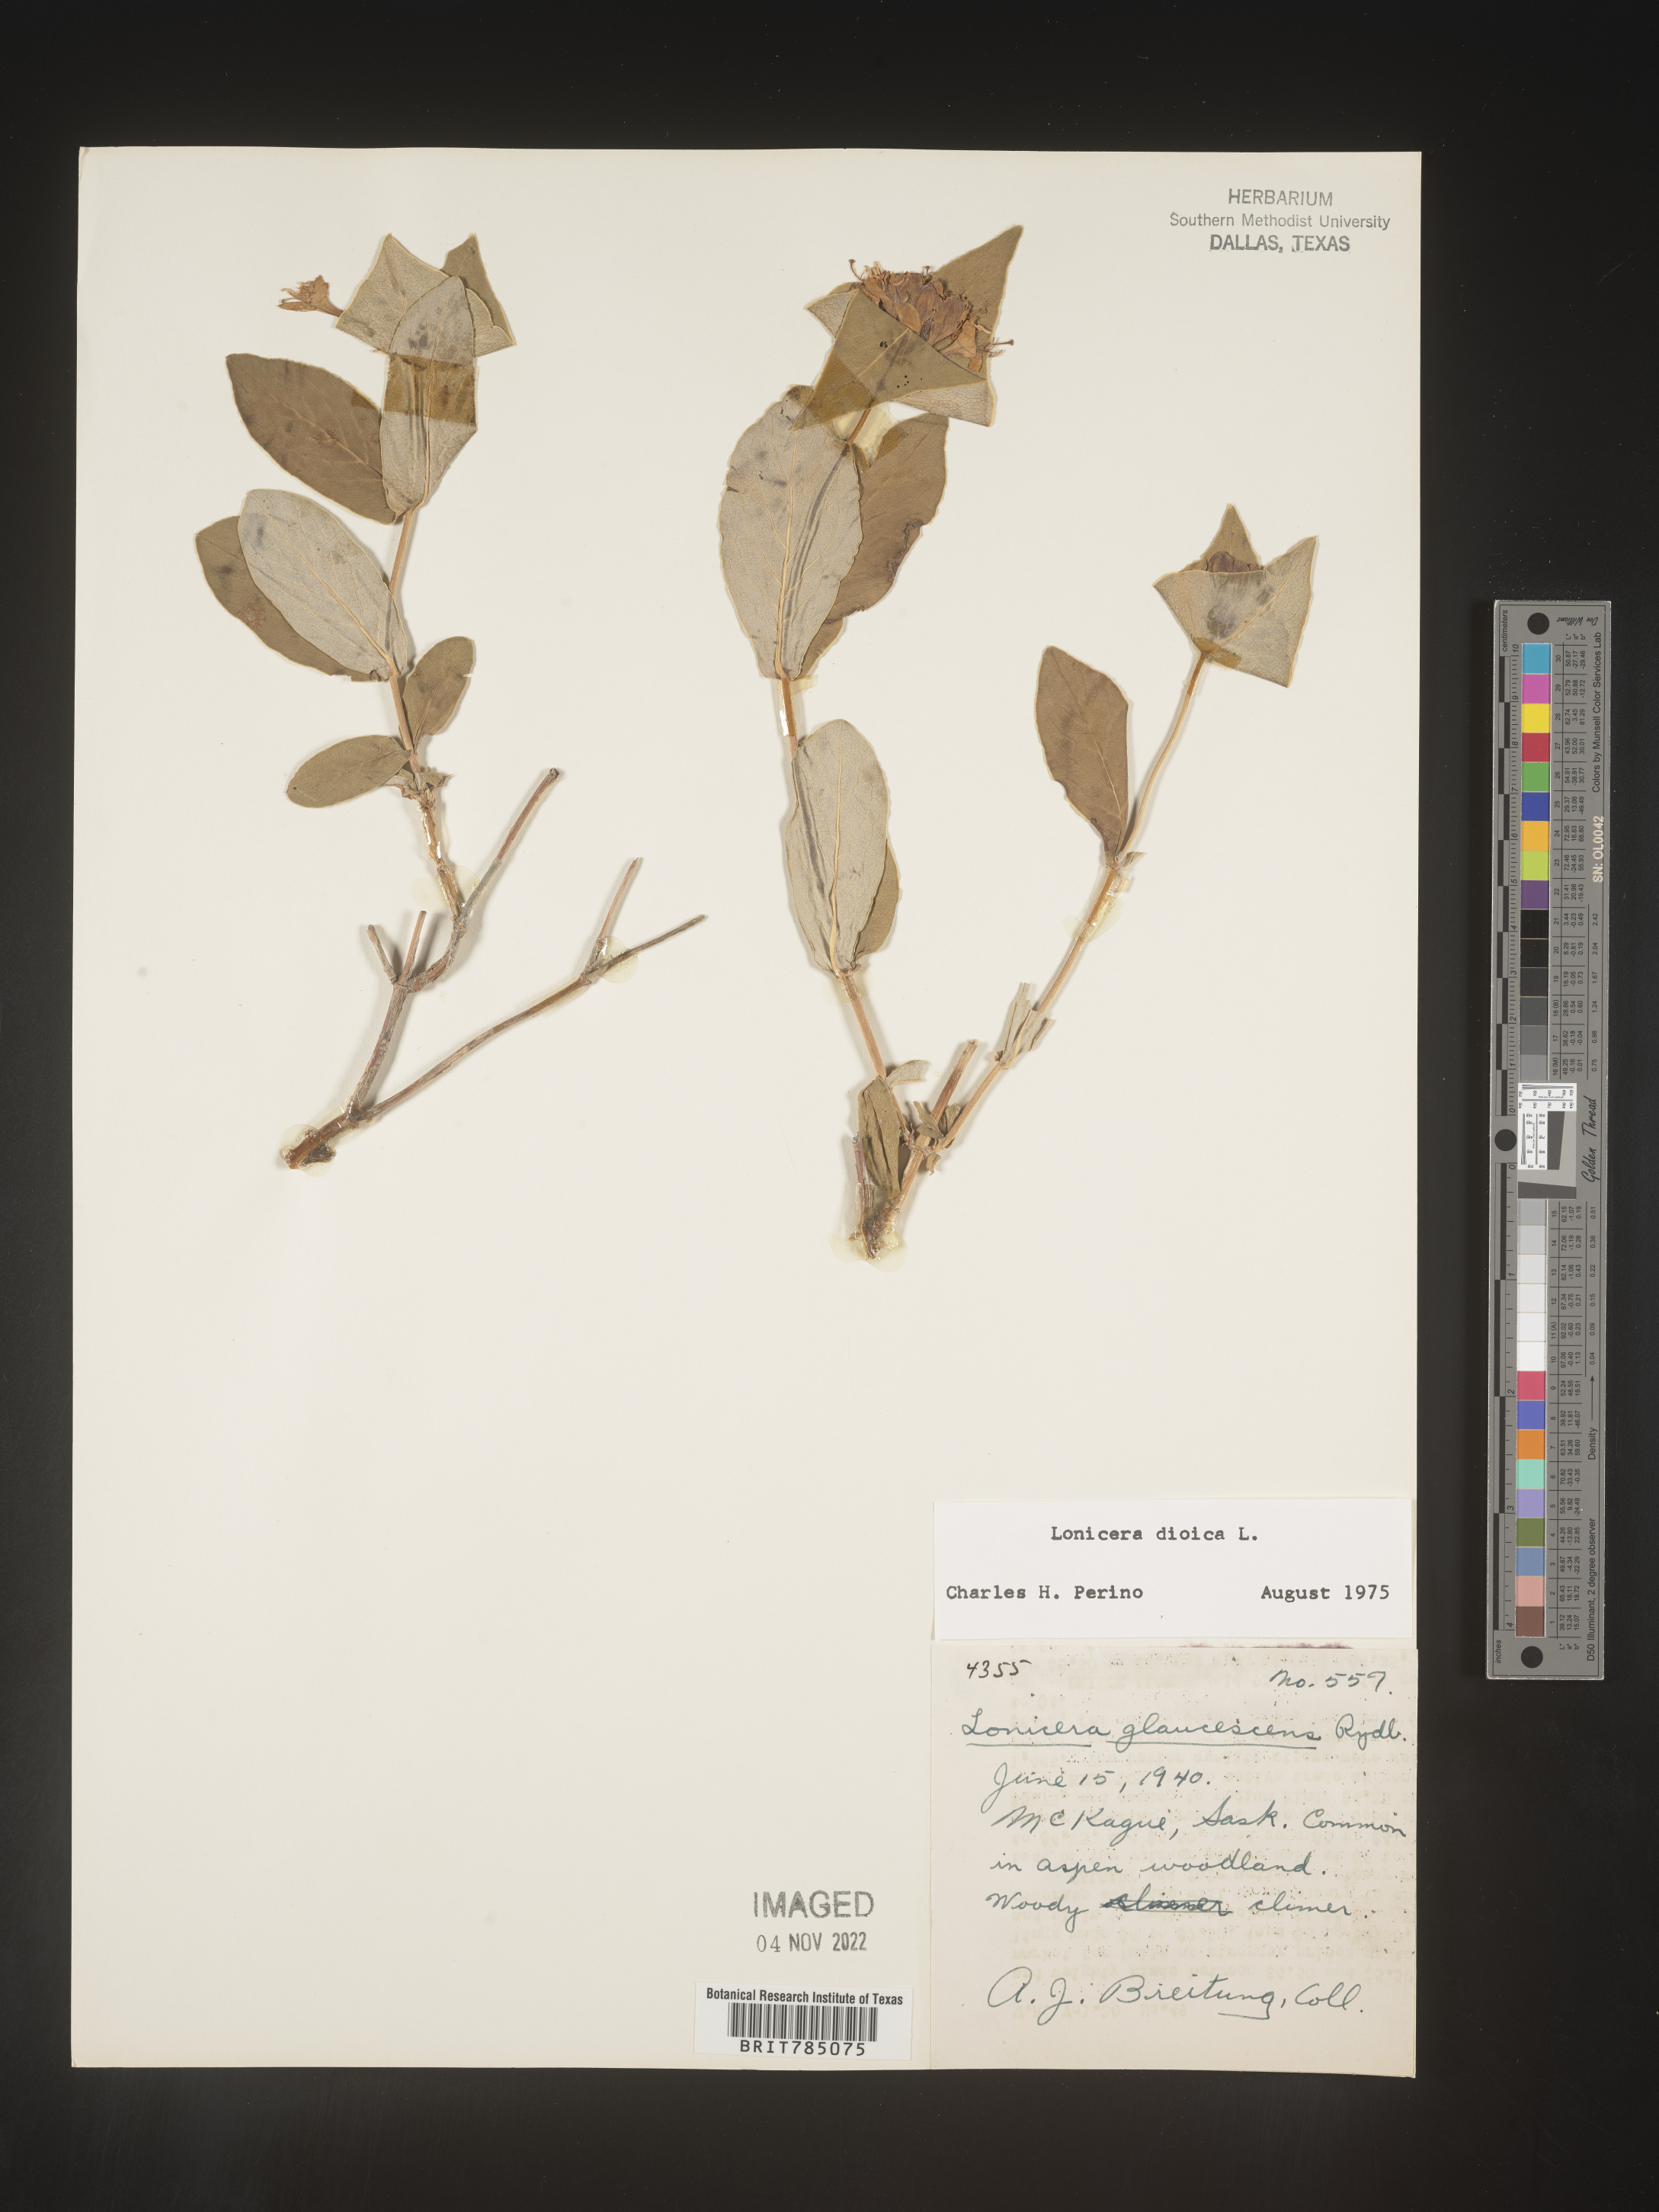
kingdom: Plantae
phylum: Tracheophyta
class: Magnoliopsida
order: Dipsacales
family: Caprifoliaceae
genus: Lonicera
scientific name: Lonicera dioica
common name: Limber honeysuckle
